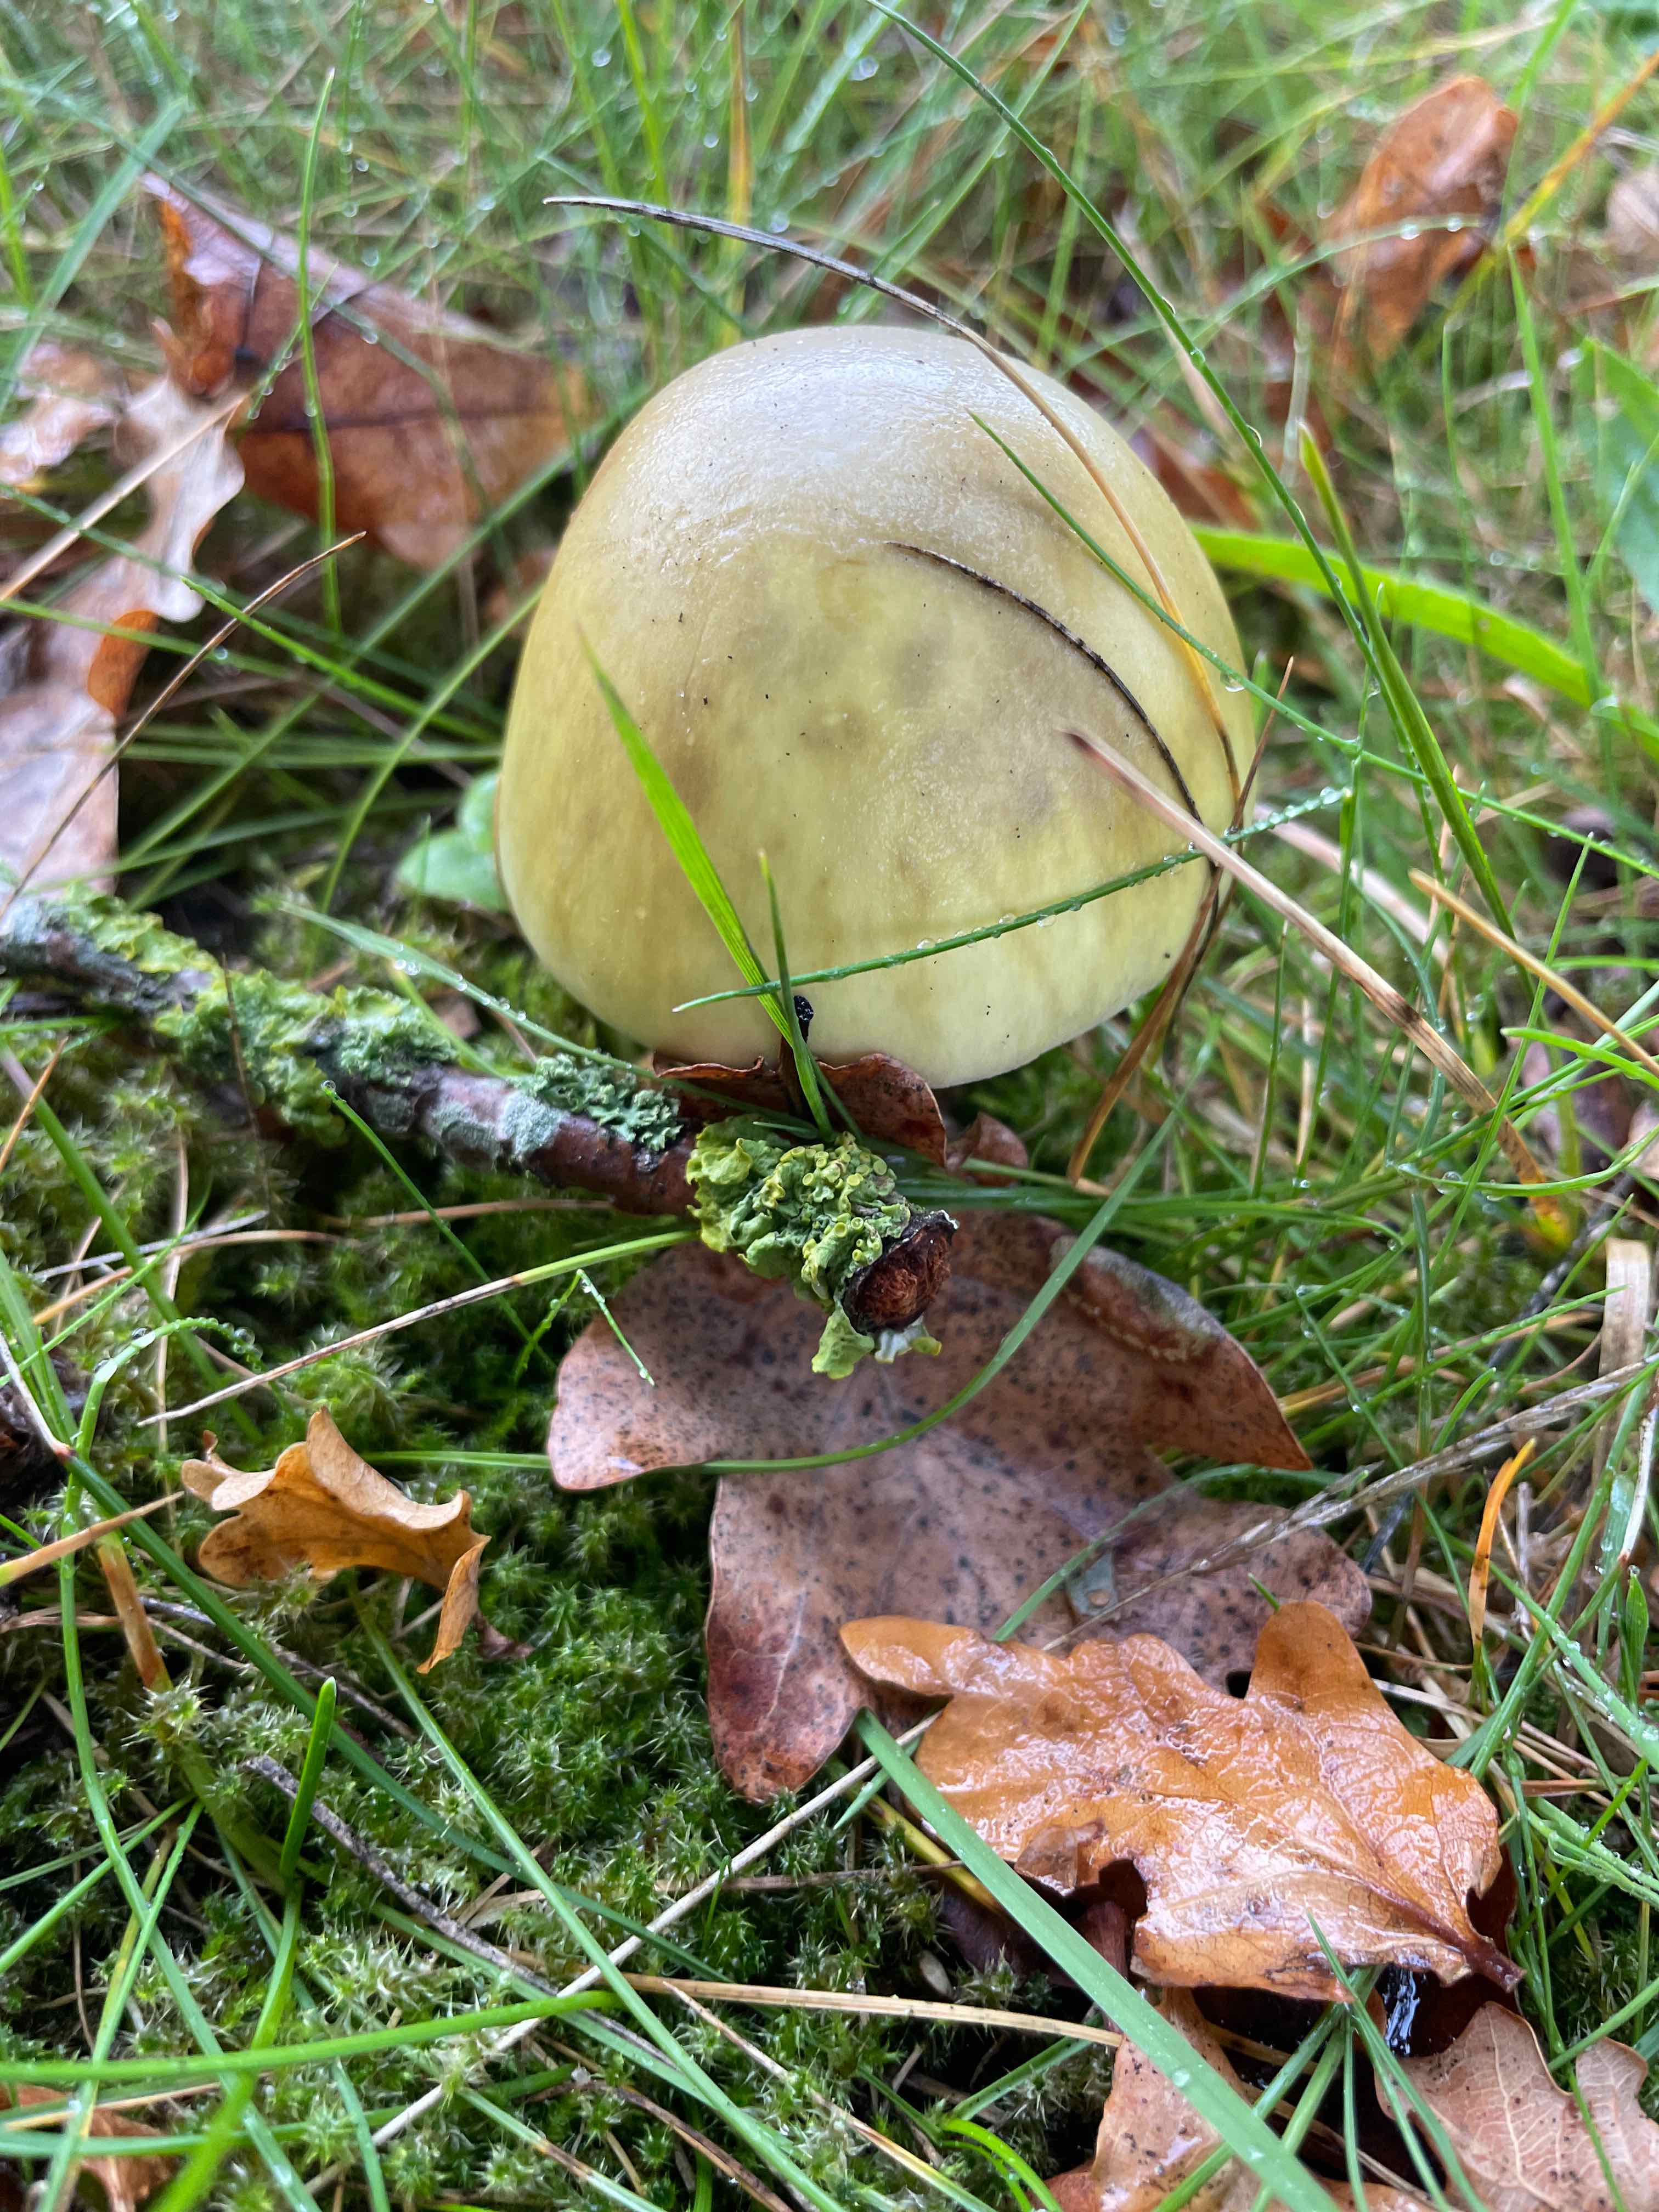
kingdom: Fungi
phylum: Basidiomycota
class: Agaricomycetes
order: Agaricales
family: Amanitaceae
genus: Amanita
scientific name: Amanita phalloides
